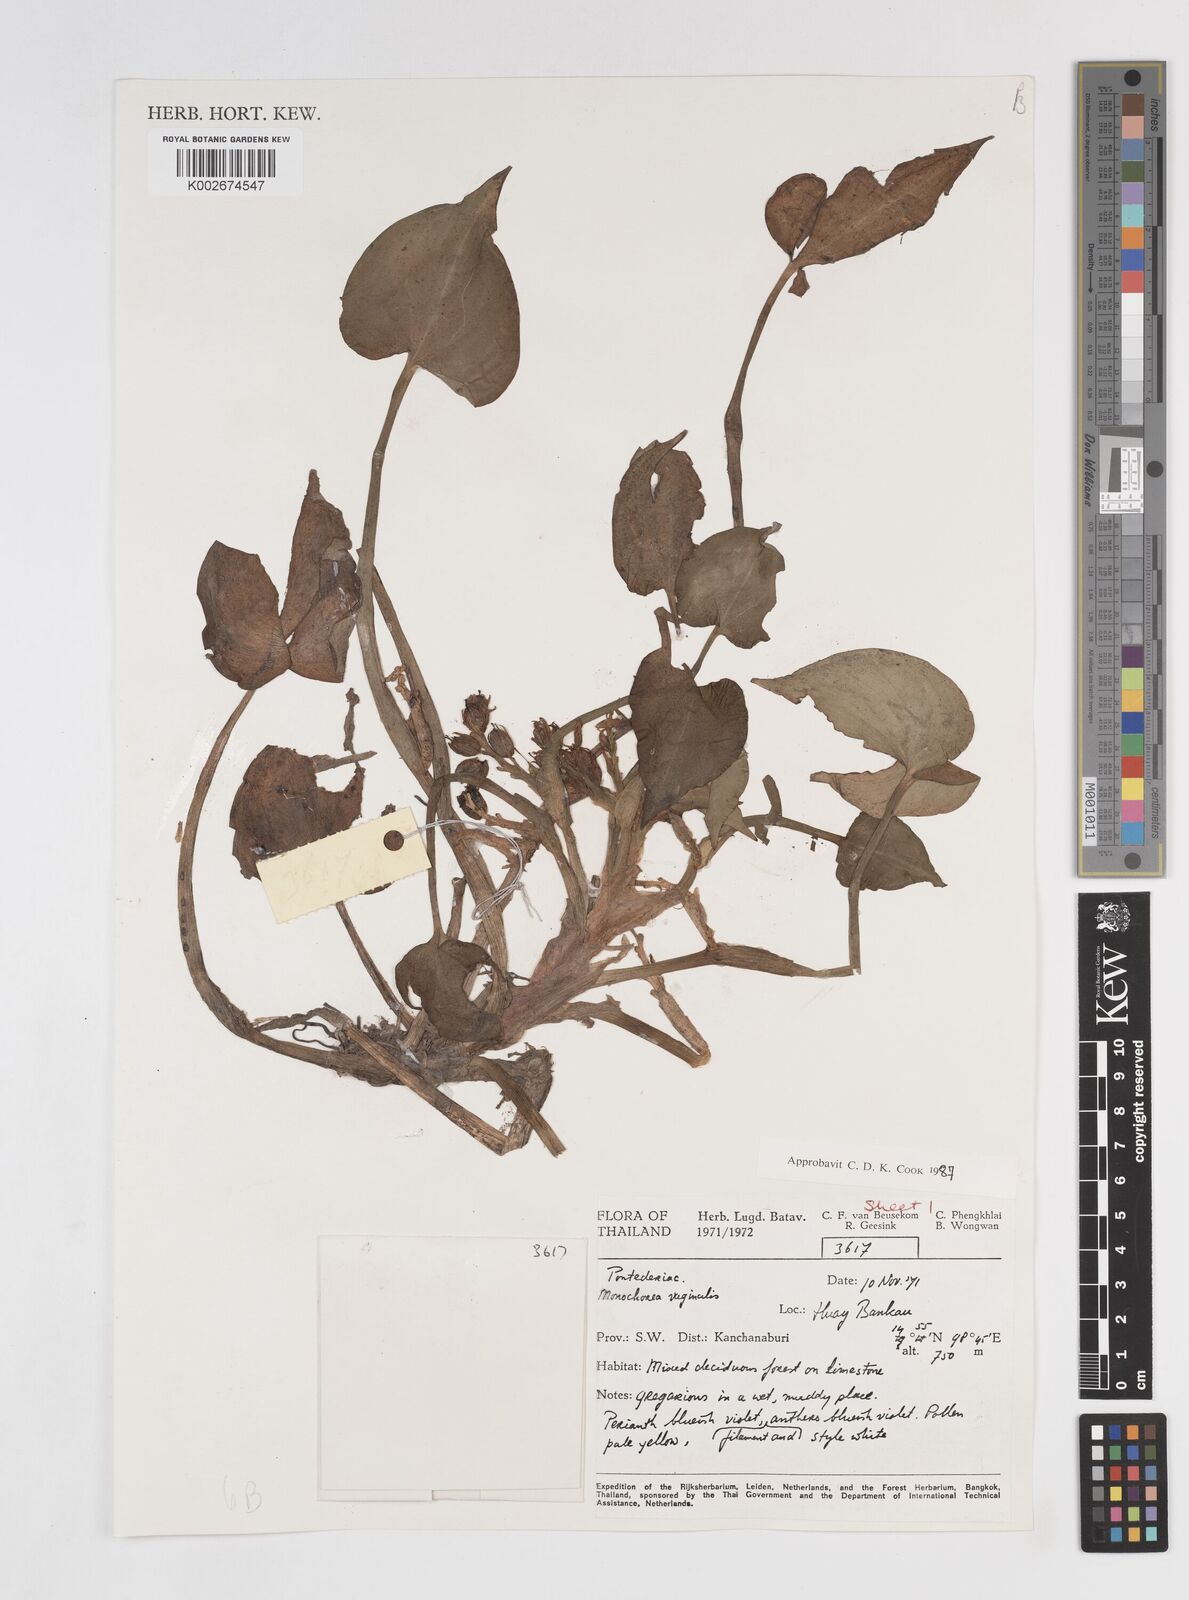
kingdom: Plantae
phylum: Tracheophyta
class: Liliopsida
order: Commelinales
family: Pontederiaceae
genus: Pontederia
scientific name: Pontederia vaginalis
